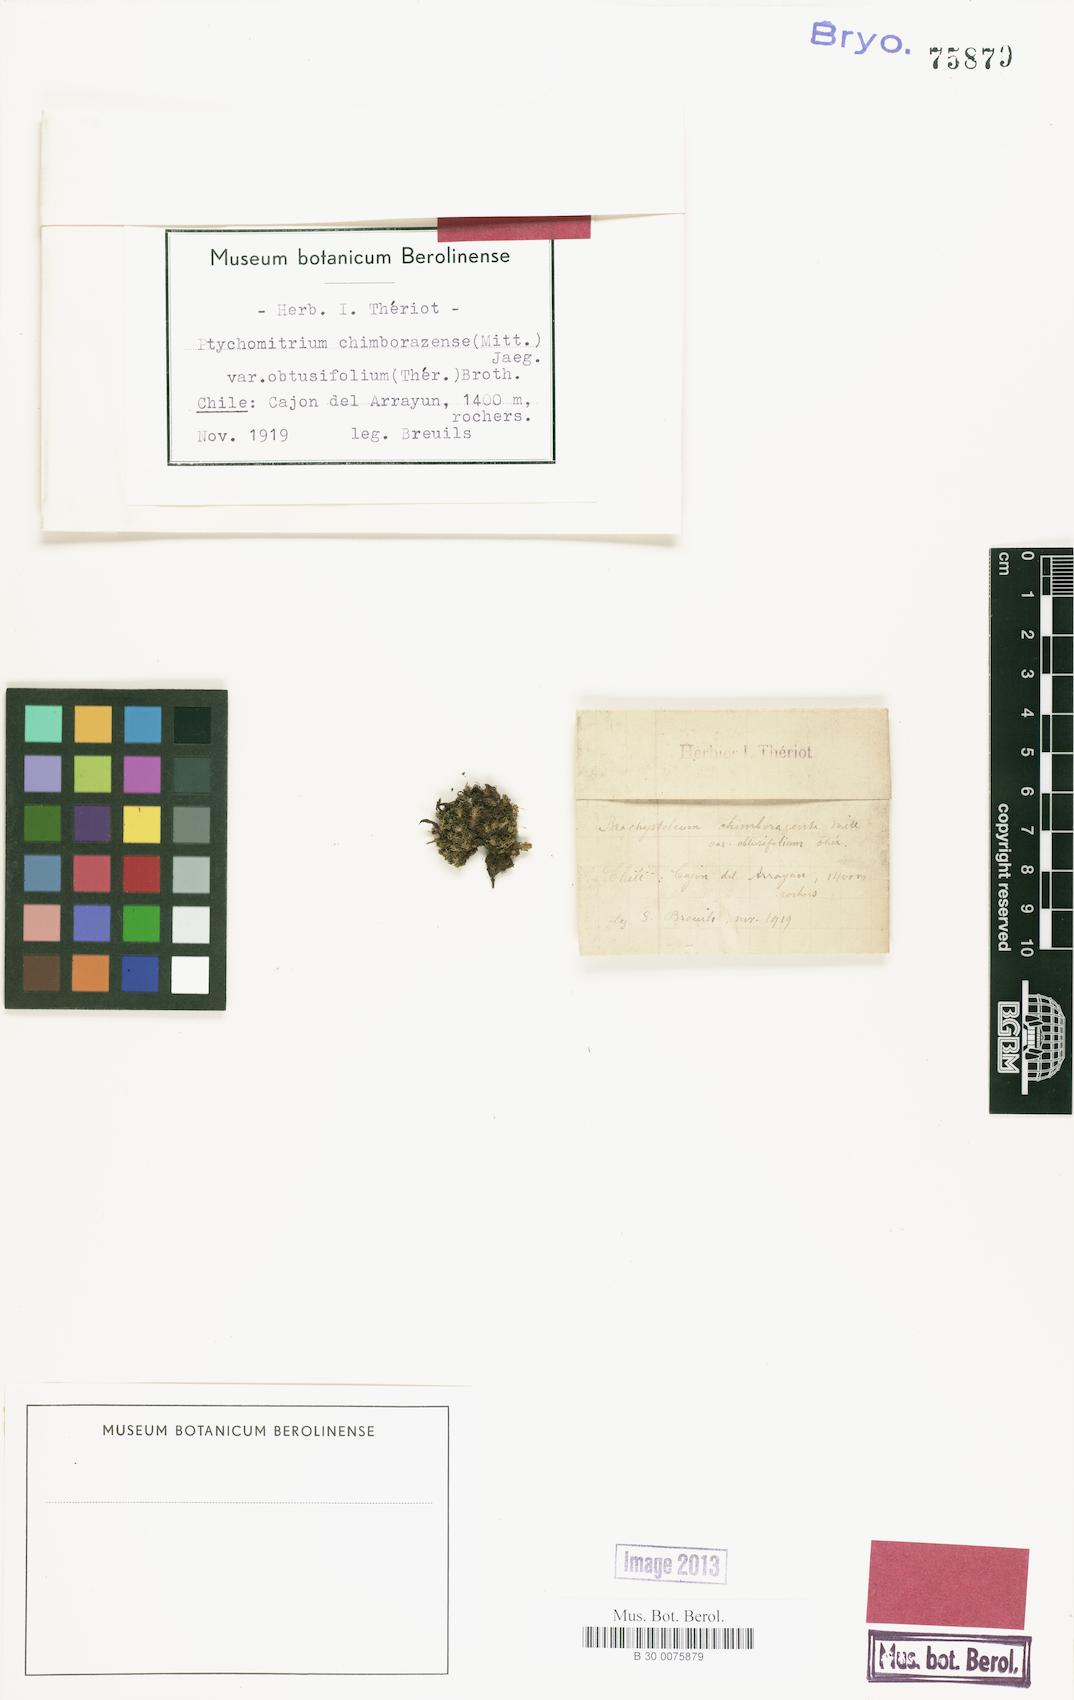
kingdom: Plantae
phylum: Bryophyta
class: Bryopsida
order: Grimmiales
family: Ptychomitriaceae
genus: Ptychomitrium
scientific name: Ptychomitrium hieronymi
